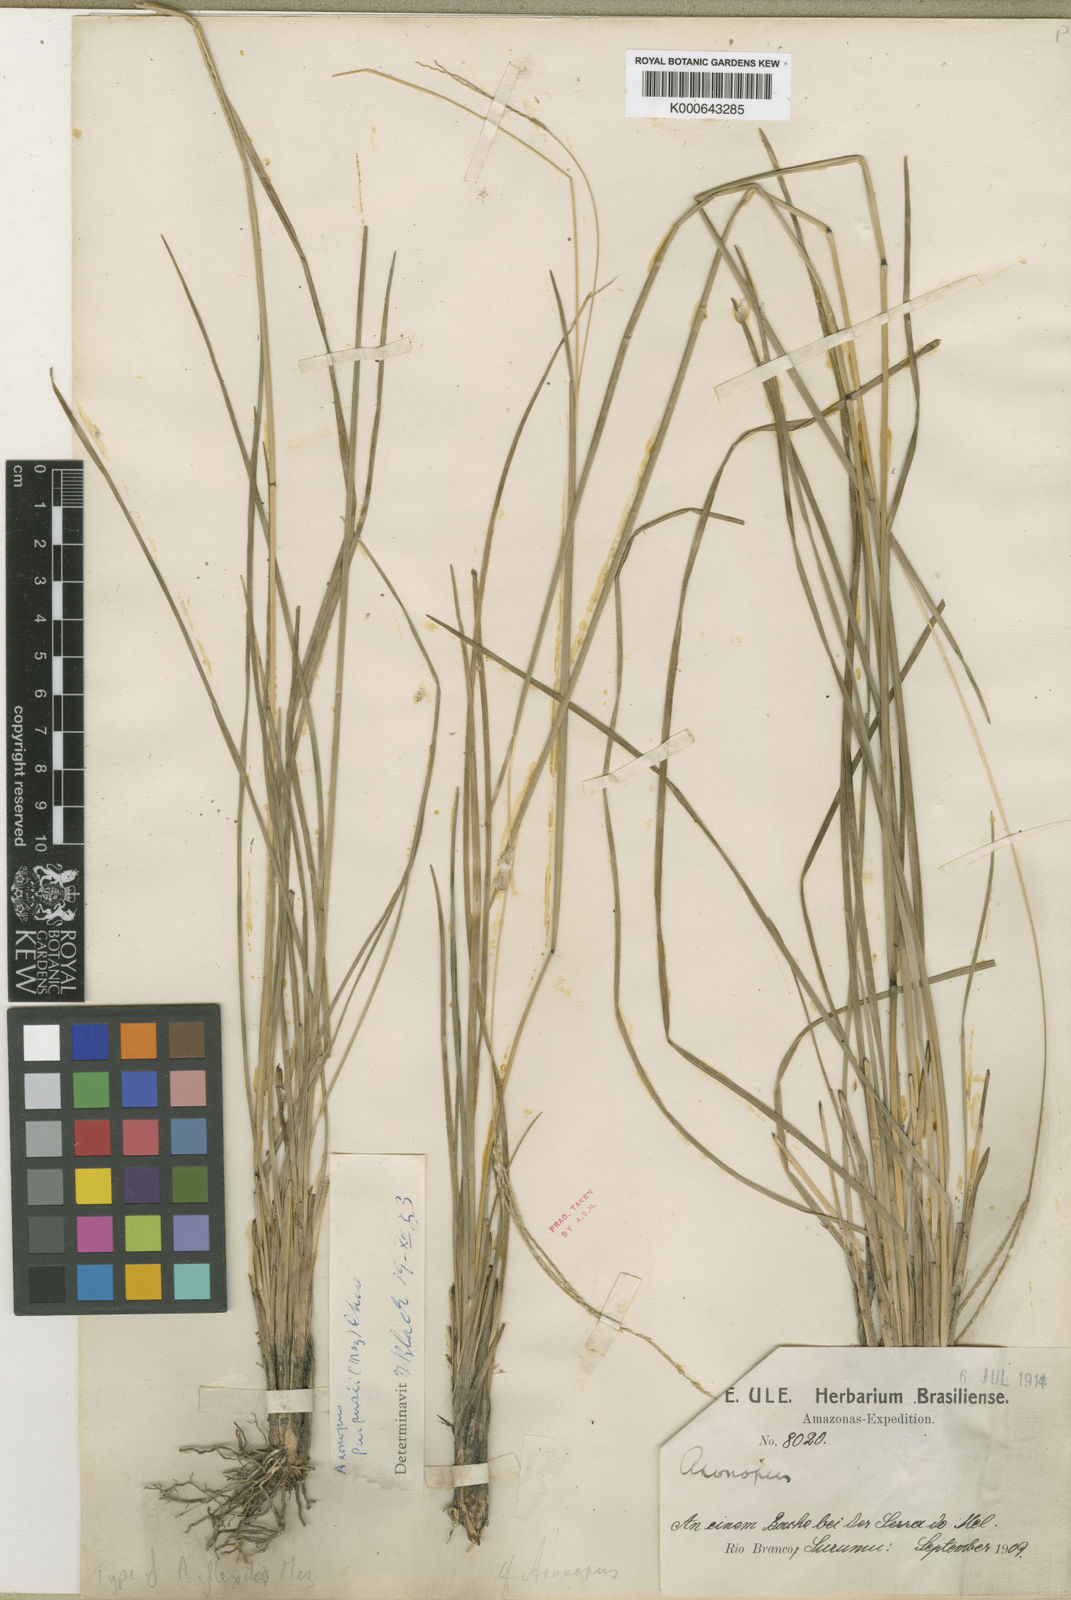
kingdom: Plantae
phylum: Tracheophyta
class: Liliopsida
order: Poales
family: Poaceae
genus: Axonopus
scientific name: Axonopus purpusii
